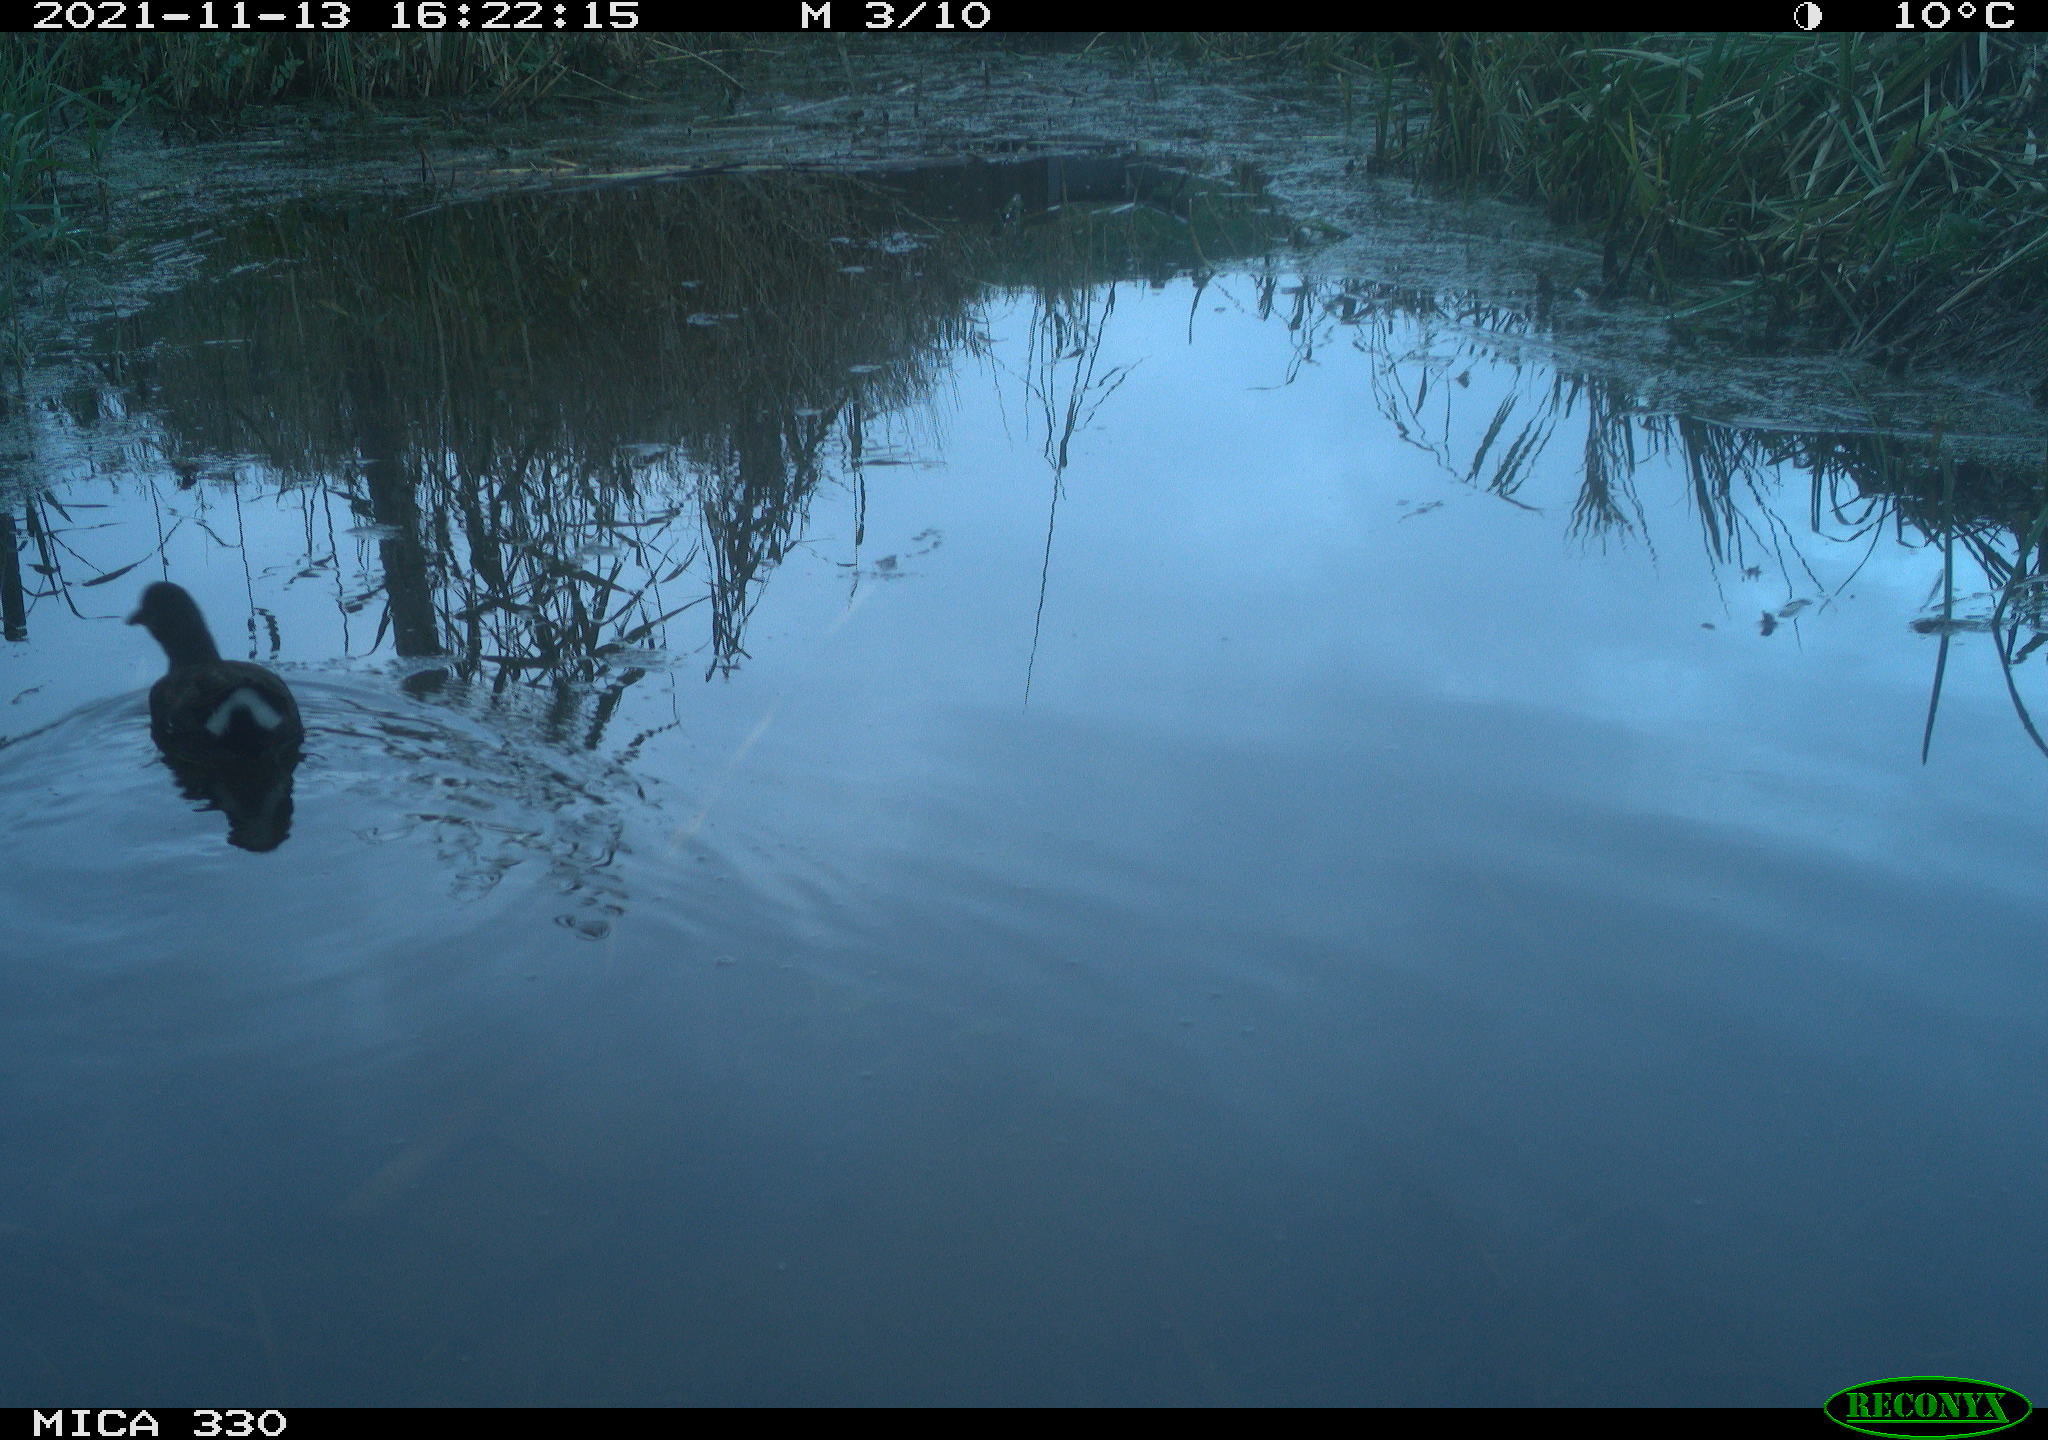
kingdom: Animalia
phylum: Chordata
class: Aves
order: Gruiformes
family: Rallidae
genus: Gallinula
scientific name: Gallinula chloropus
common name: Common moorhen
